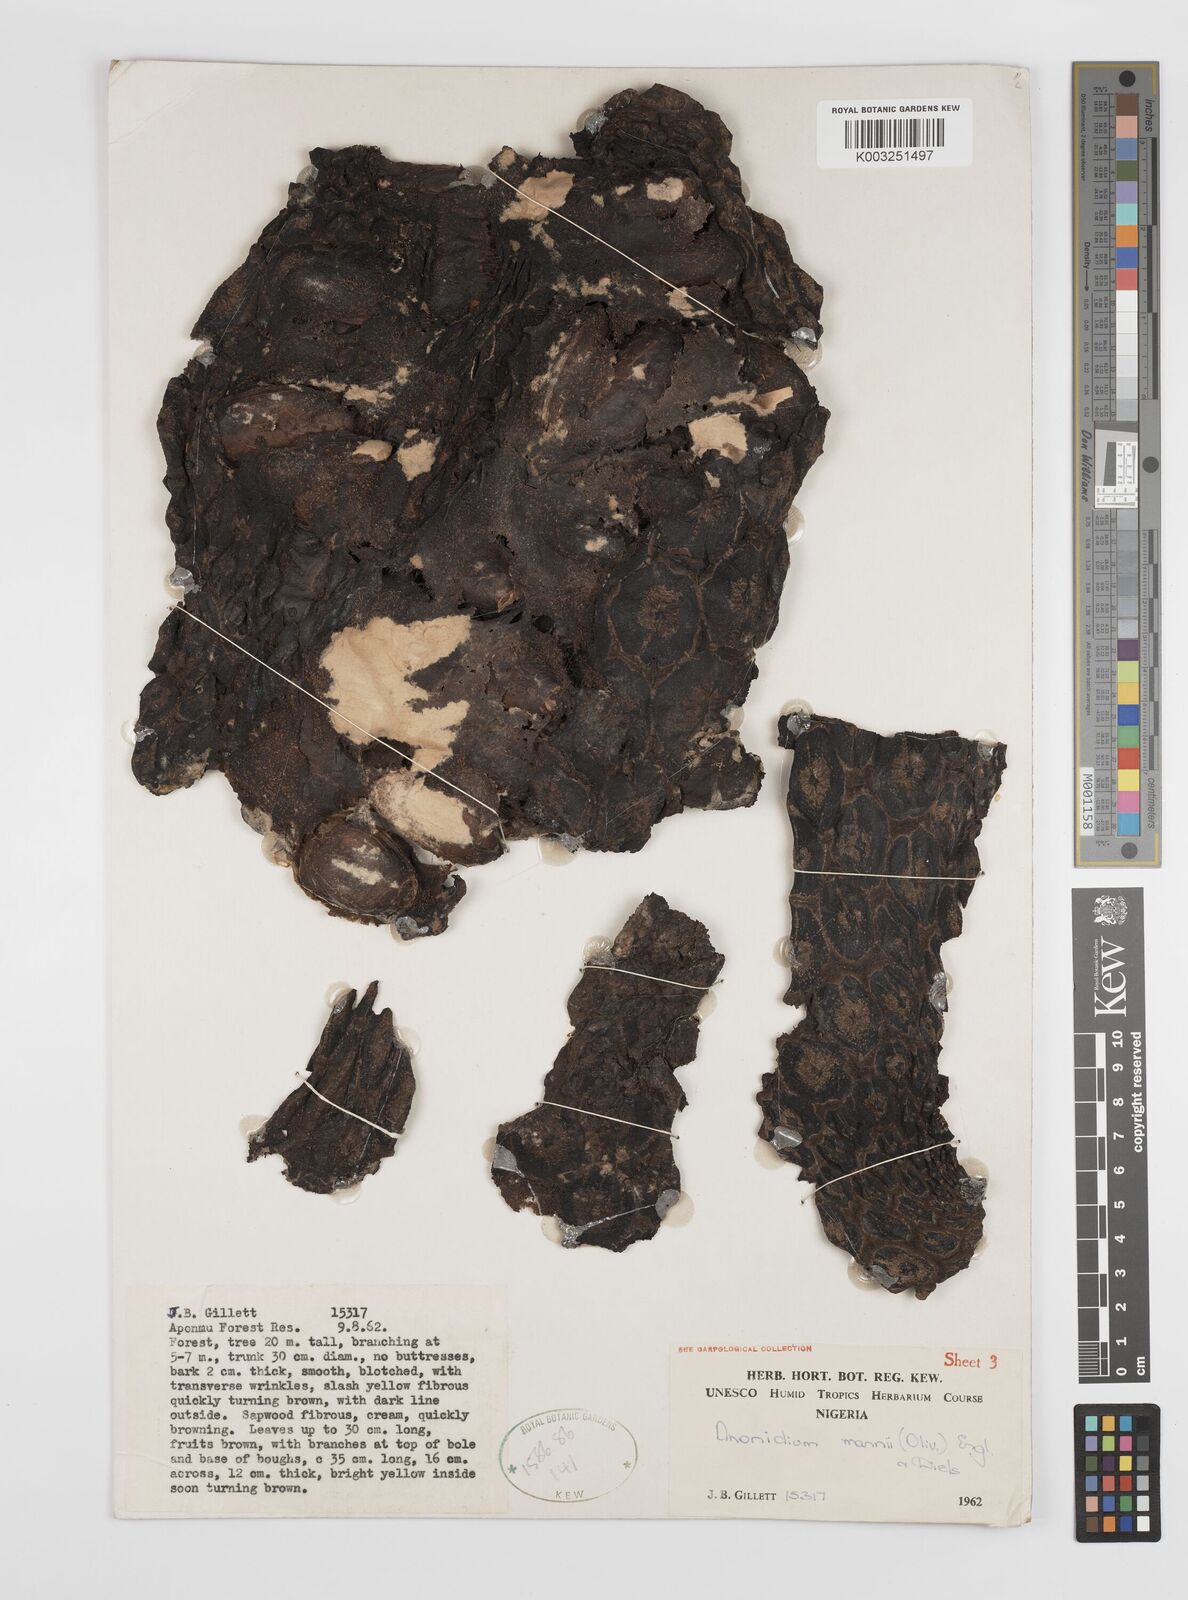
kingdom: Plantae
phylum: Tracheophyta
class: Magnoliopsida
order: Magnoliales
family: Annonaceae
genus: Anonidium
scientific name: Anonidium mannii
